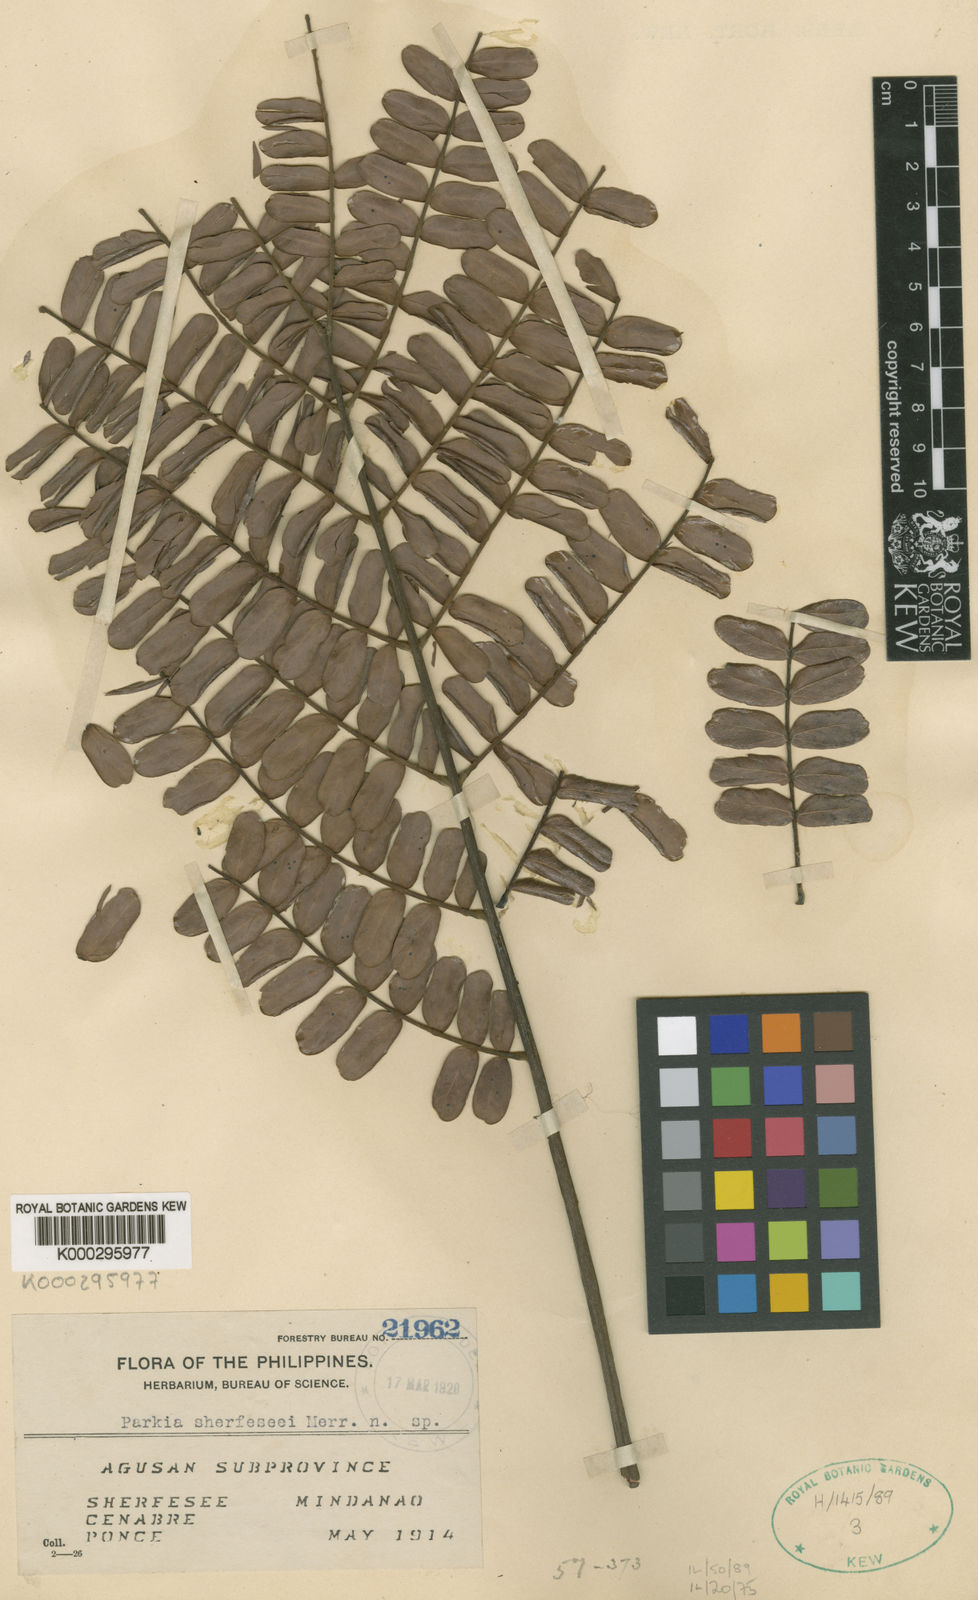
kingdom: Plantae
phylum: Tracheophyta
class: Magnoliopsida
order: Fabales
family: Fabaceae
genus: Parkia
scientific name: Parkia sherfeseei
